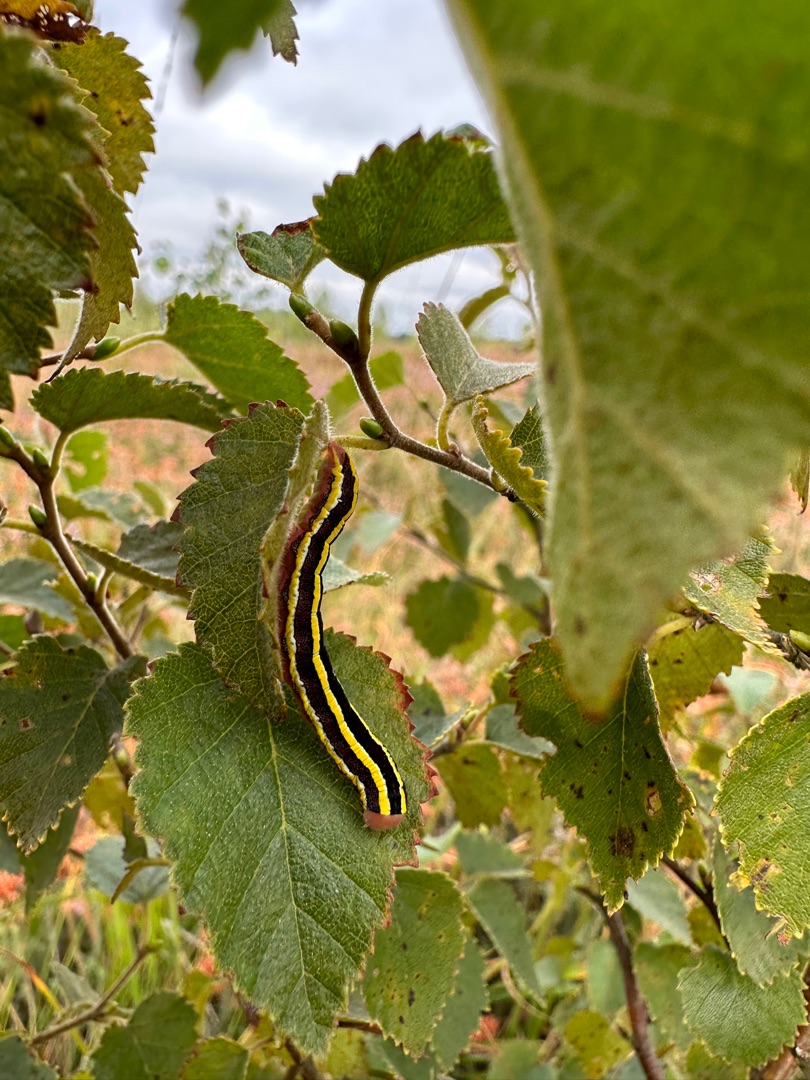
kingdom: Animalia
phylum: Arthropoda
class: Insecta
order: Lepidoptera
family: Noctuidae
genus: Ceramica
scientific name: Ceramica pisi
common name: Ærteugle
